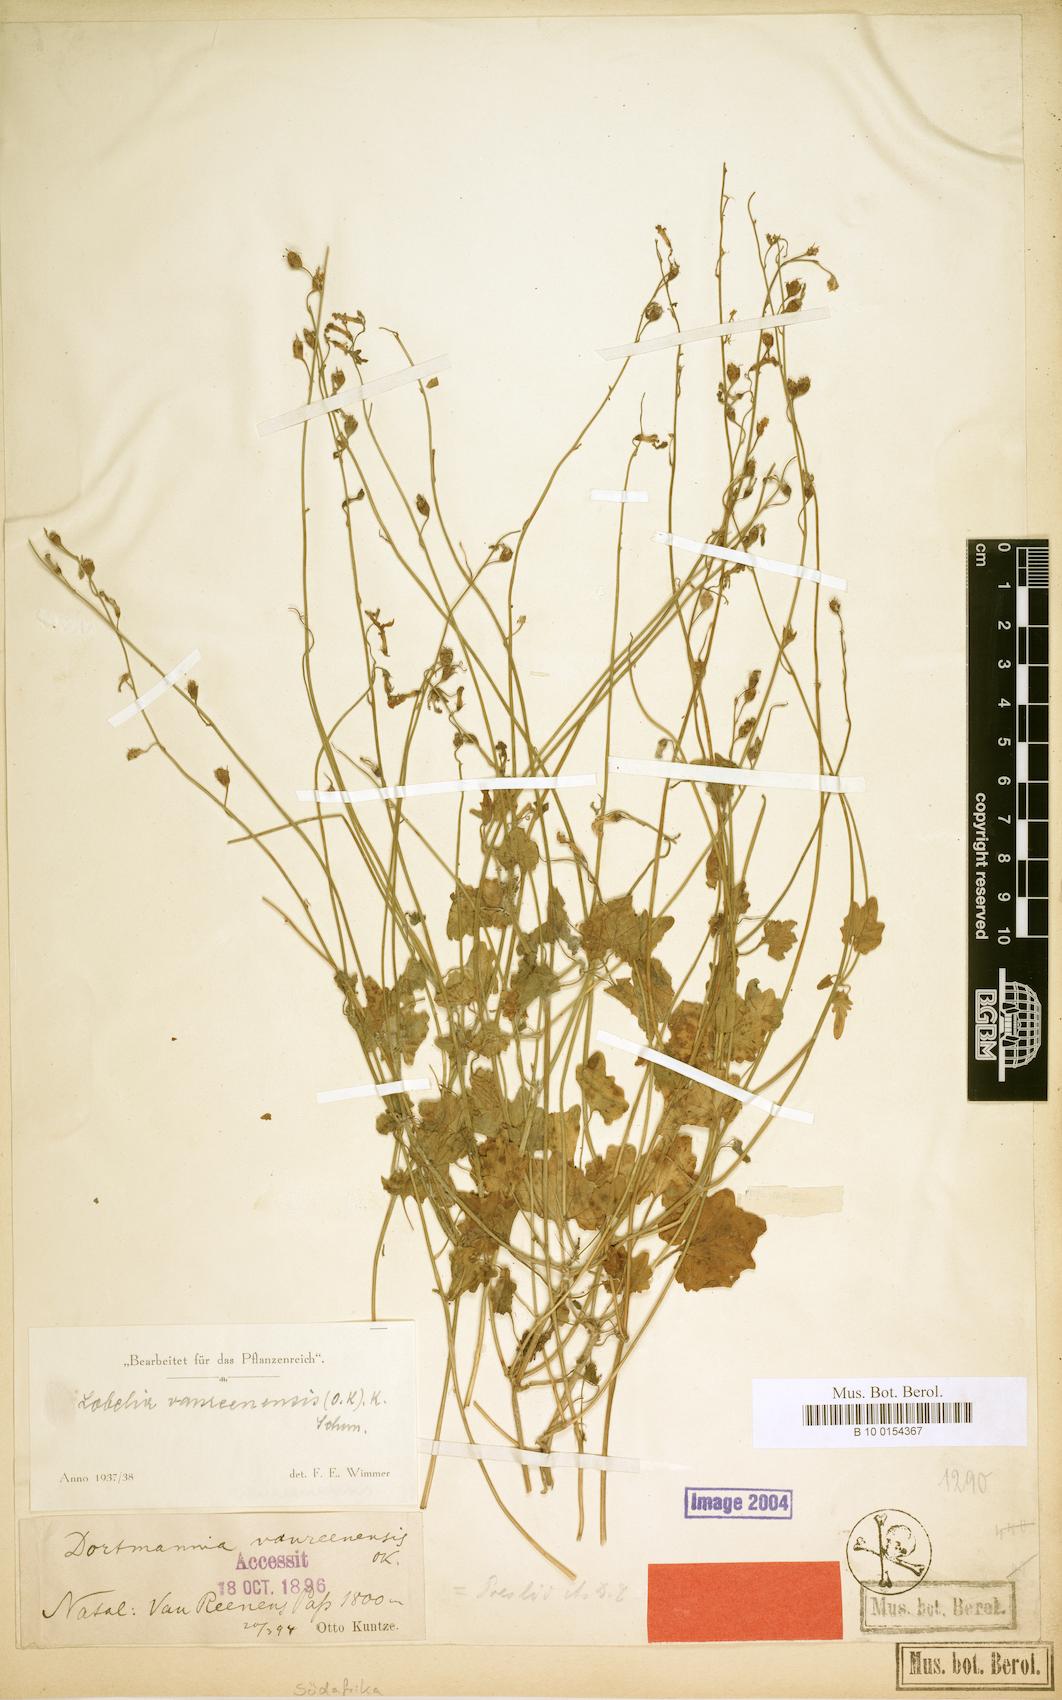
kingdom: Plantae
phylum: Tracheophyta
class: Magnoliopsida
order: Asterales
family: Campanulaceae
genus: Lobelia
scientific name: Lobelia vanreenensis
